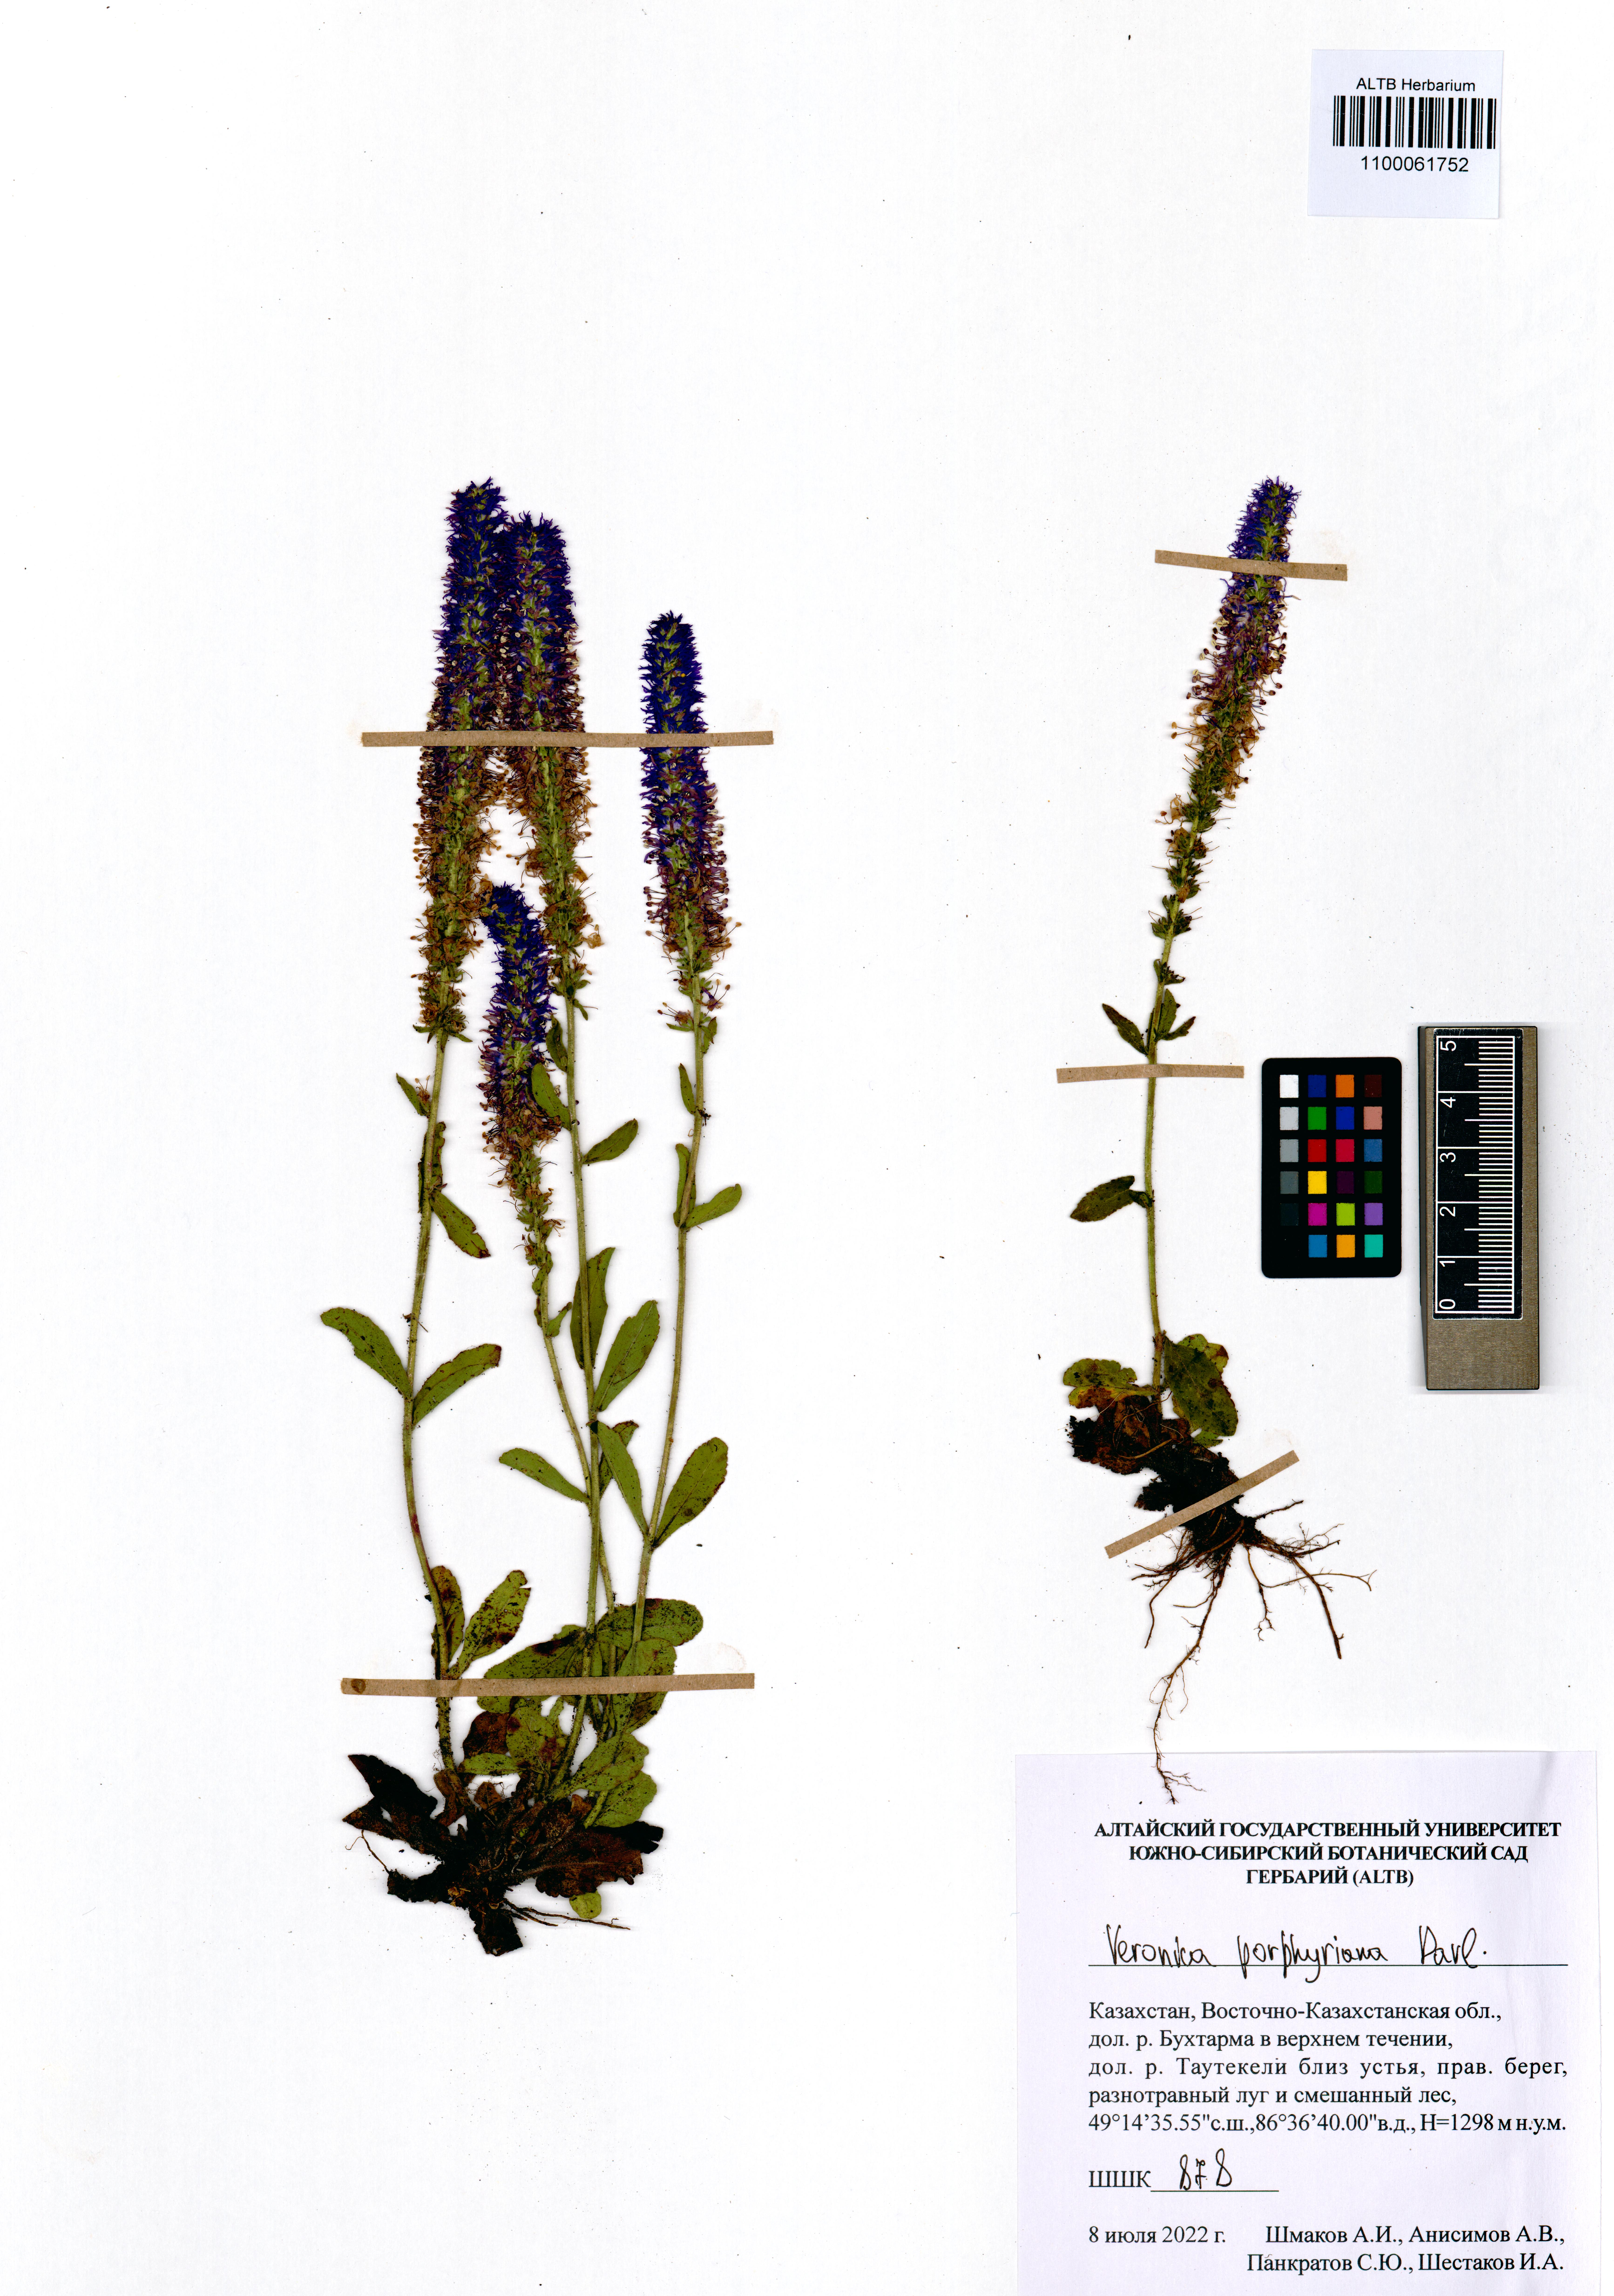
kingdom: Plantae
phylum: Tracheophyta
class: Magnoliopsida
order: Lamiales
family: Plantaginaceae
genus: Veronica
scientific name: Veronica porphyriana
